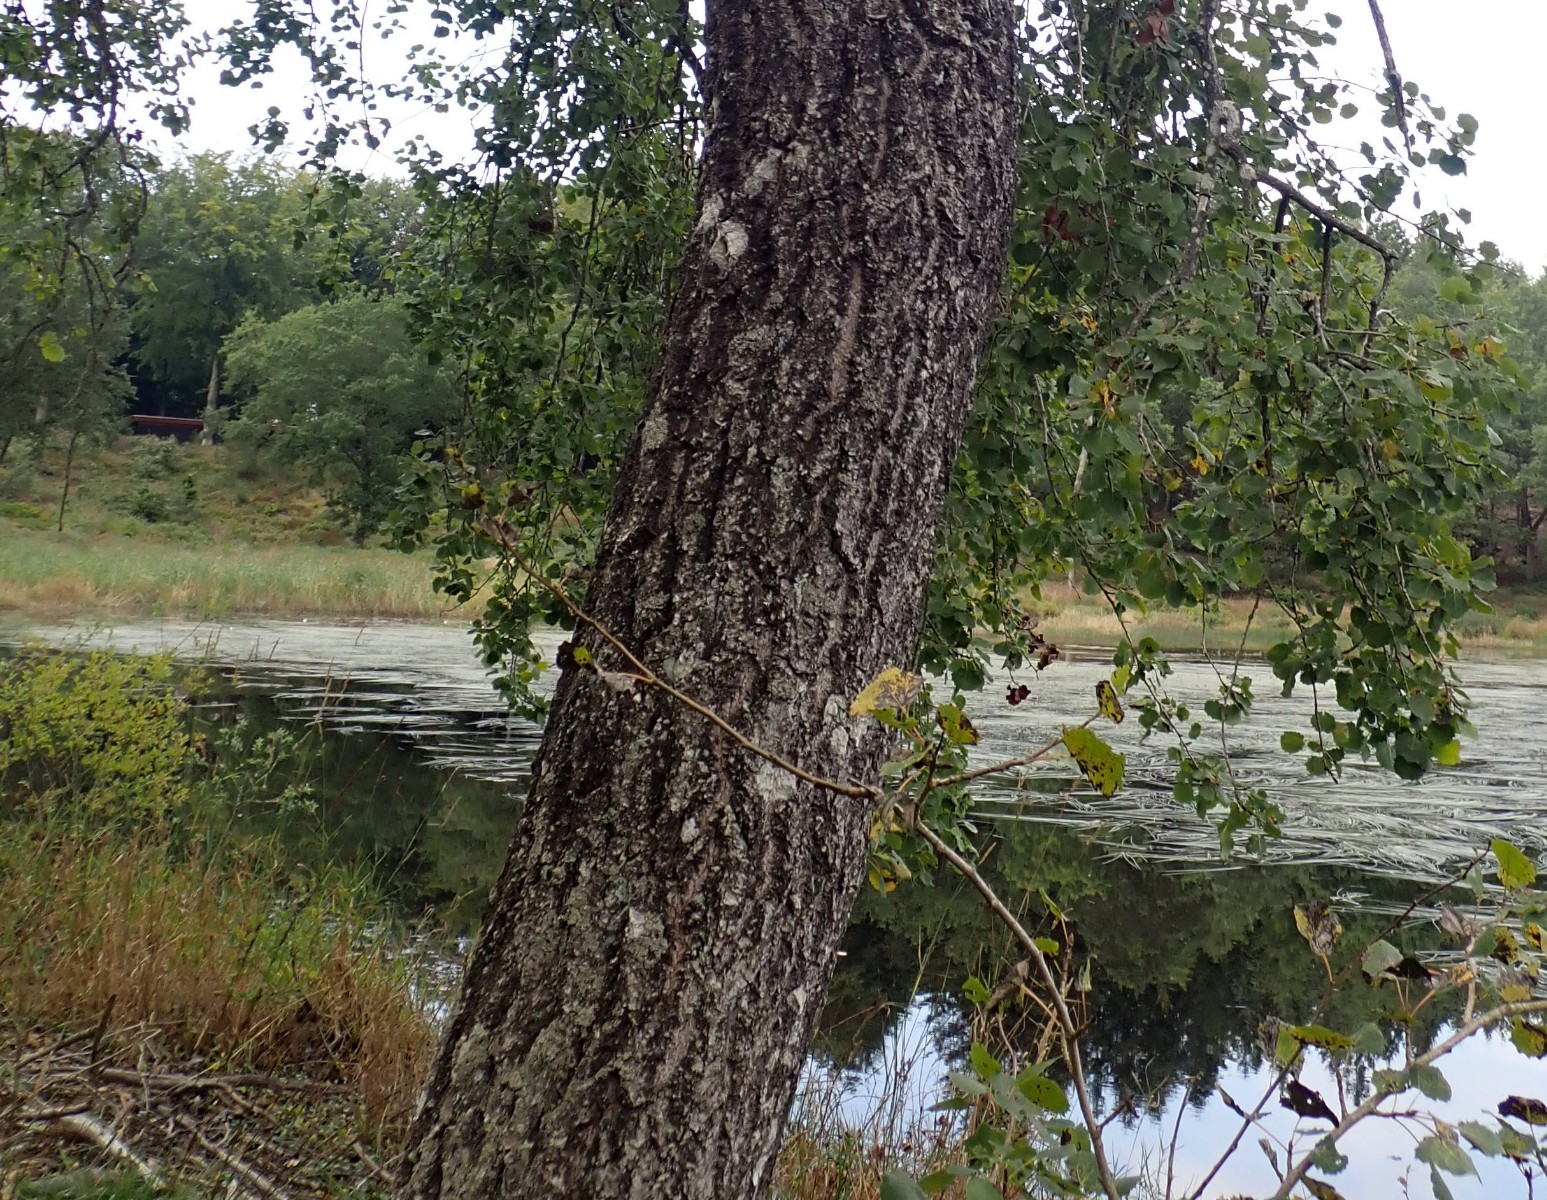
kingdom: Fungi
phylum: Basidiomycota
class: Agaricomycetes
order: Hymenochaetales
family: Hymenochaetaceae
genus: Inocutis
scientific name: Inocutis rheades
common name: ræve-spejlporesvamp
